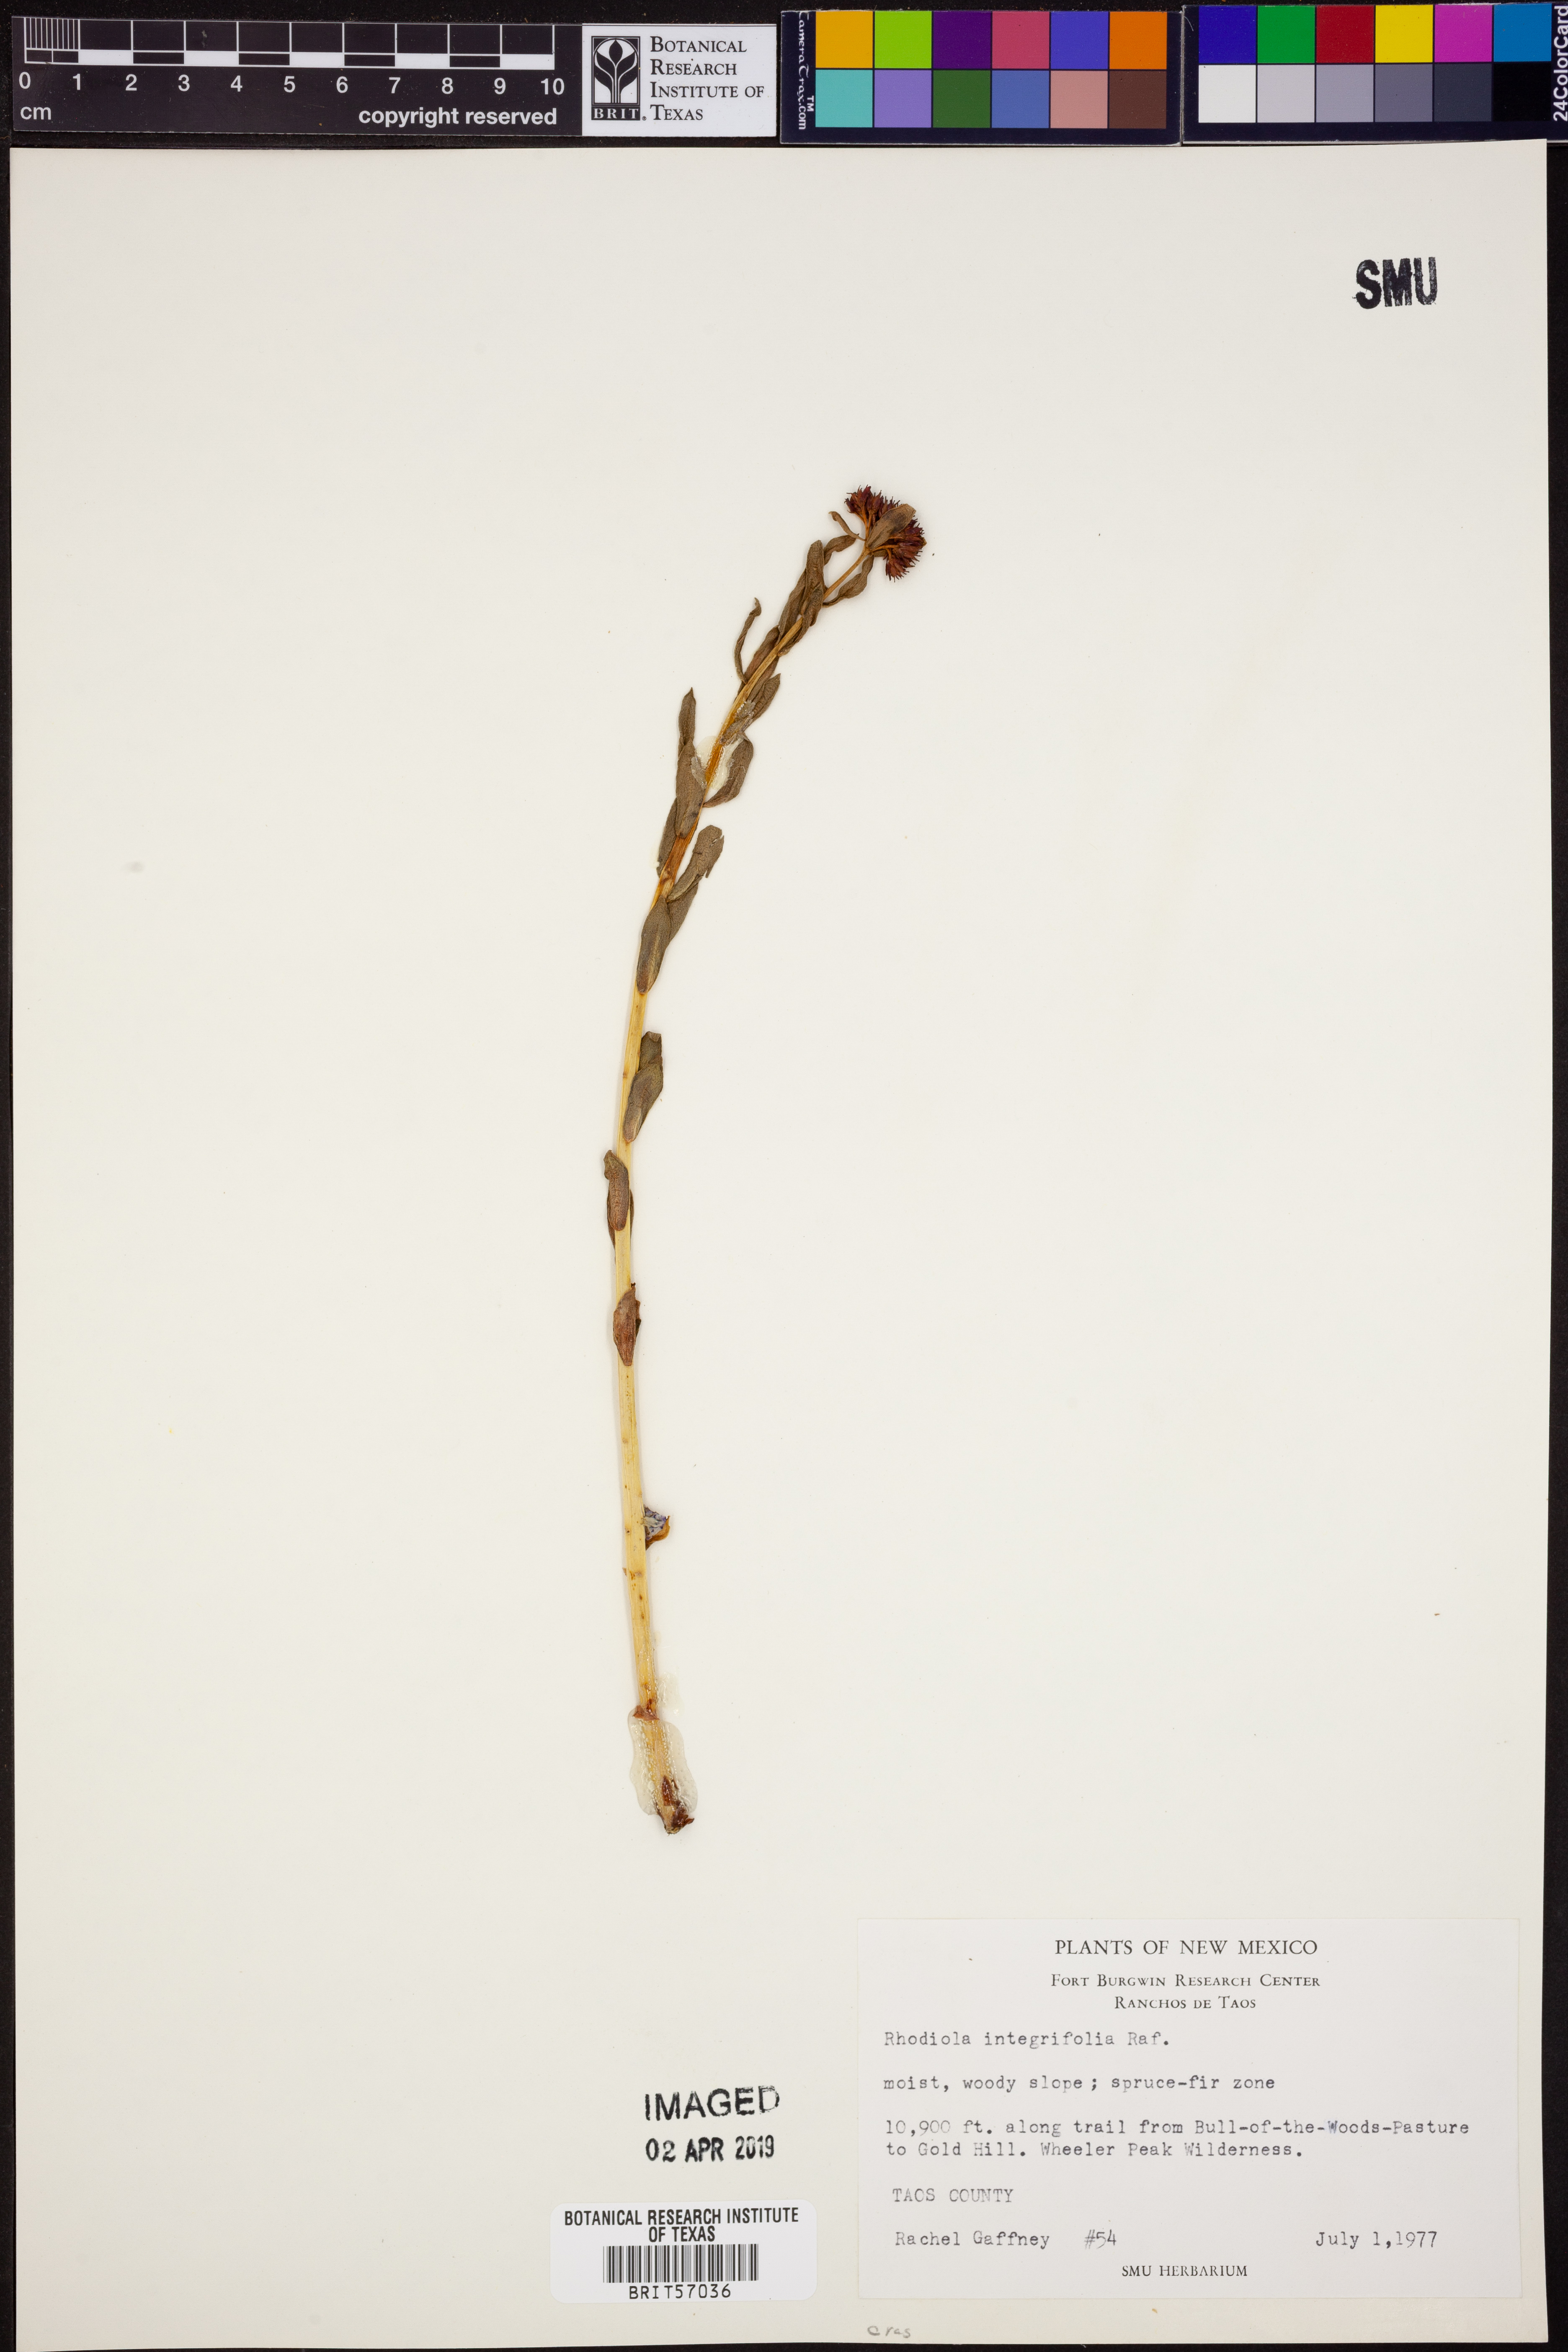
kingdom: Plantae
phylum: Tracheophyta
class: Magnoliopsida
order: Saxifragales
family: Crassulaceae
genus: Rhodiola
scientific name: Rhodiola integrifolia
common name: Western roseroot
